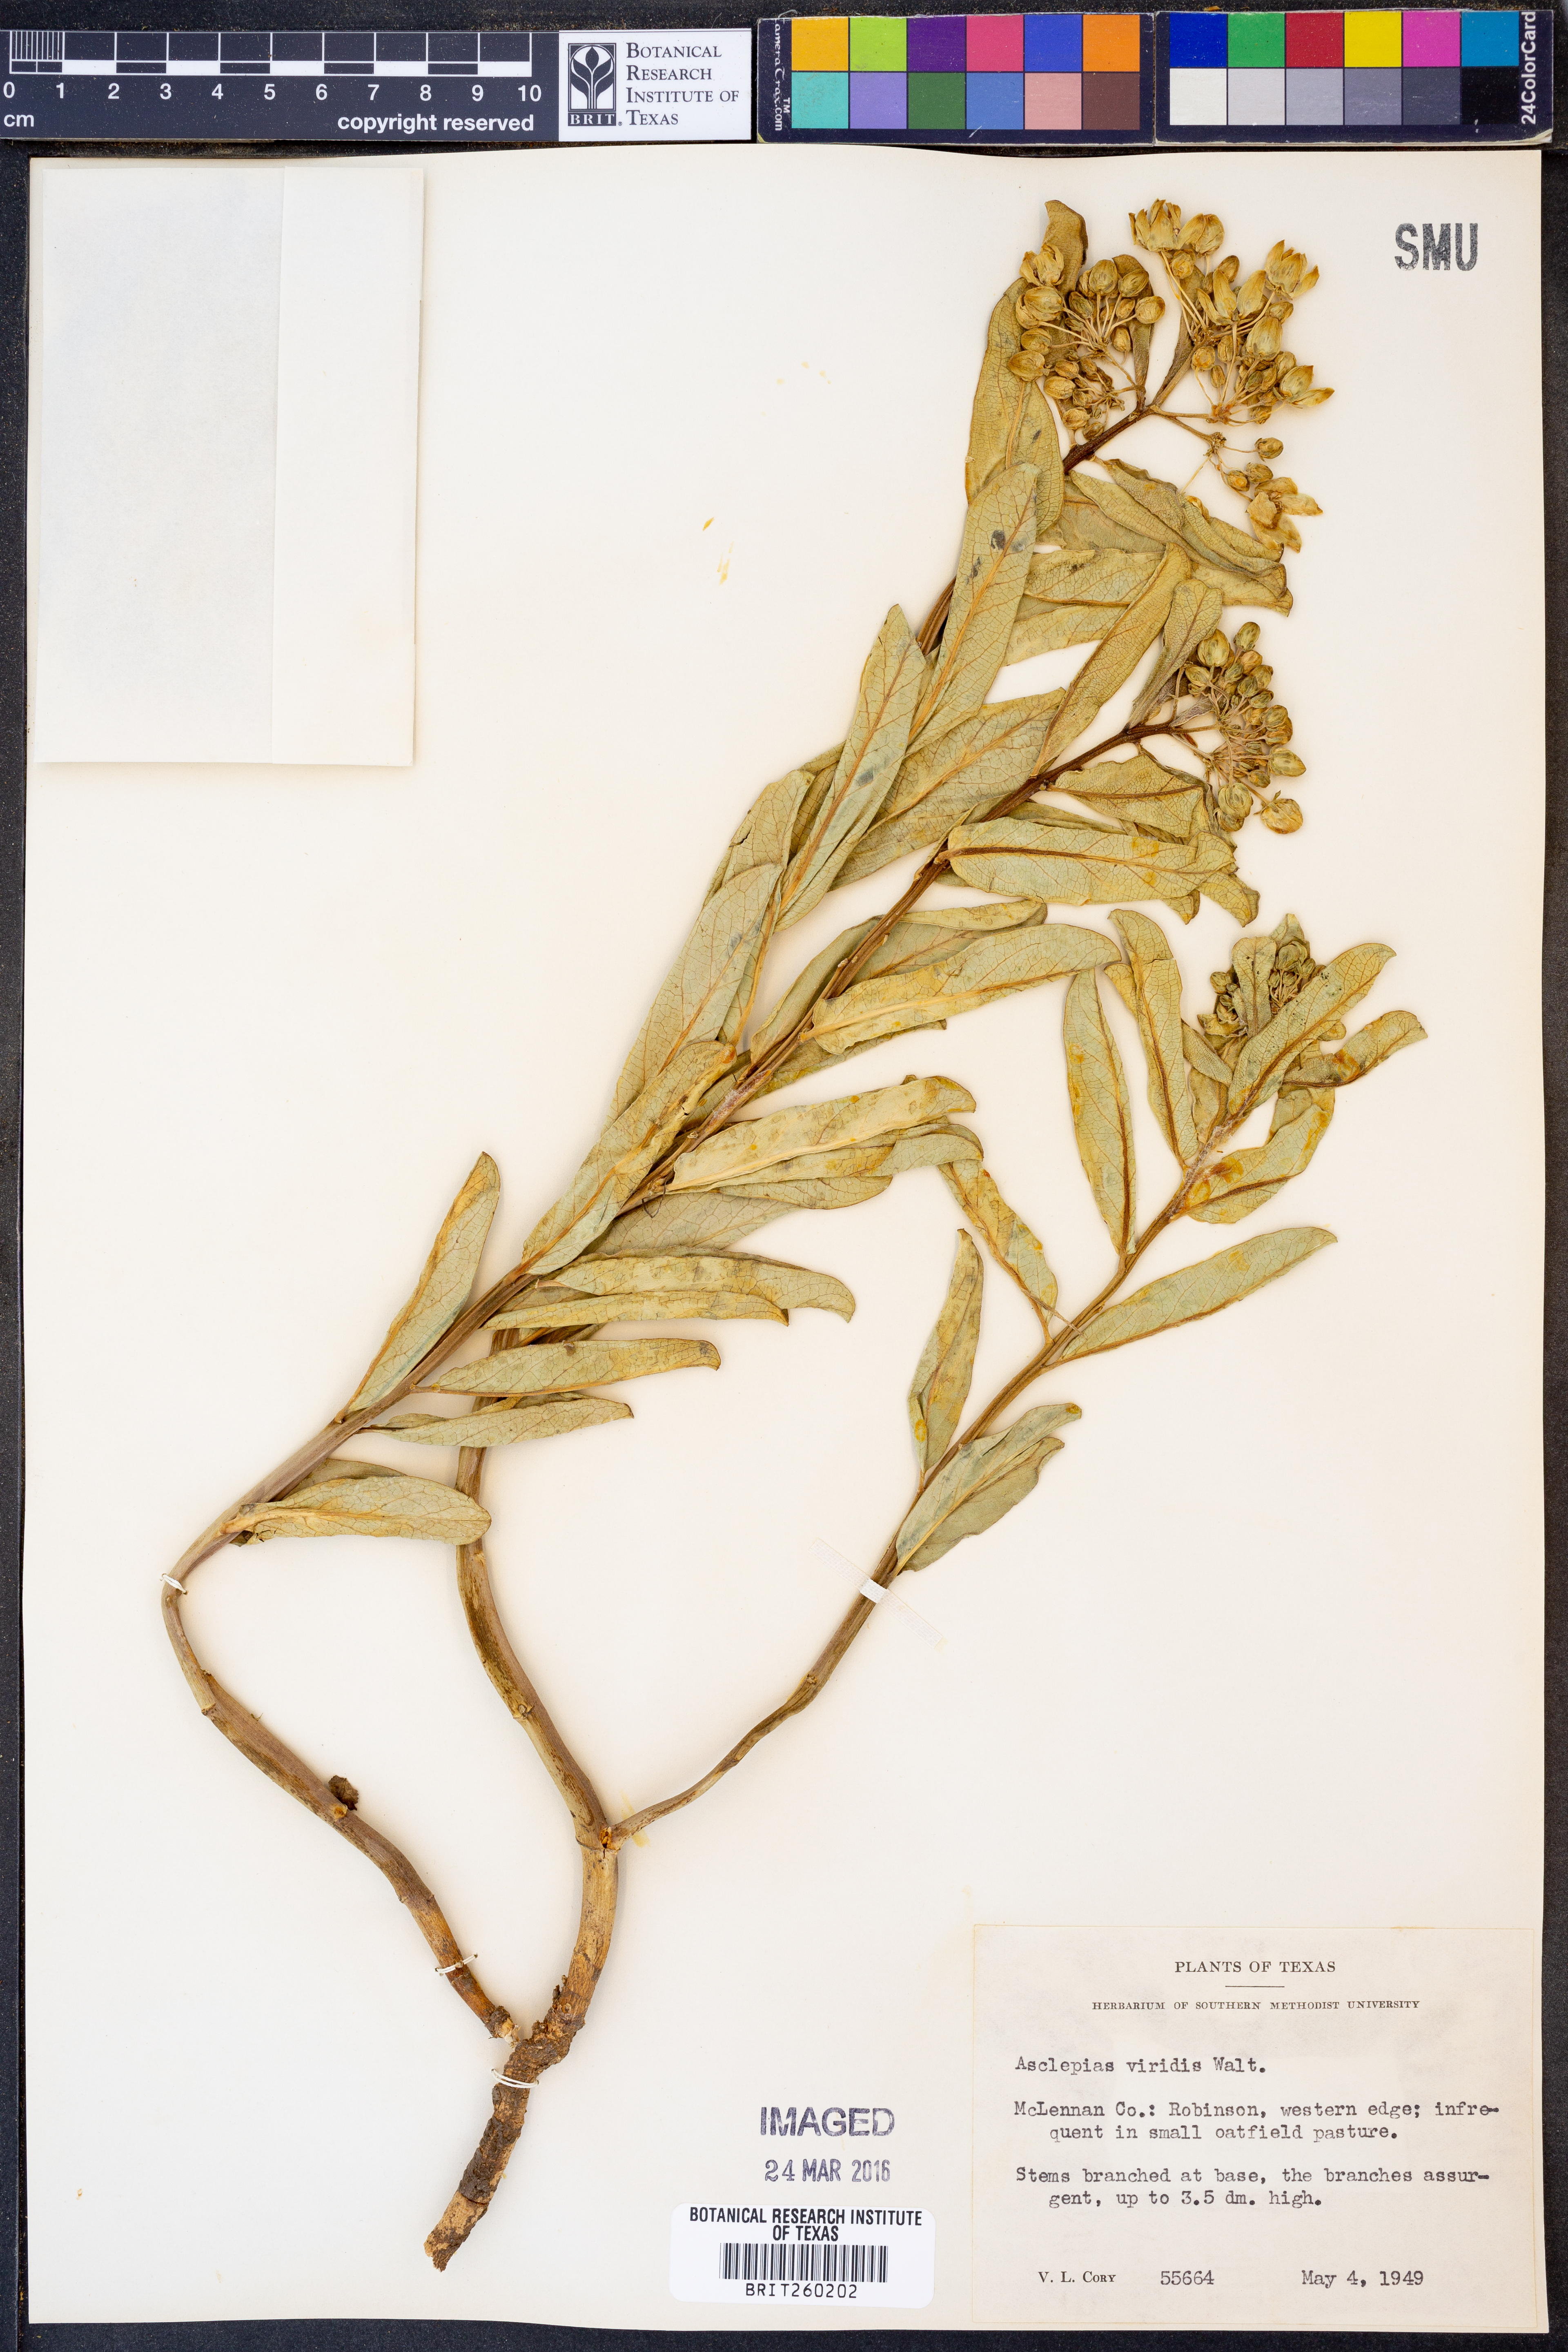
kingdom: Plantae
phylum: Tracheophyta
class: Magnoliopsida
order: Gentianales
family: Apocynaceae
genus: Asclepias
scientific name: Asclepias viridis
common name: Antelope-horns
